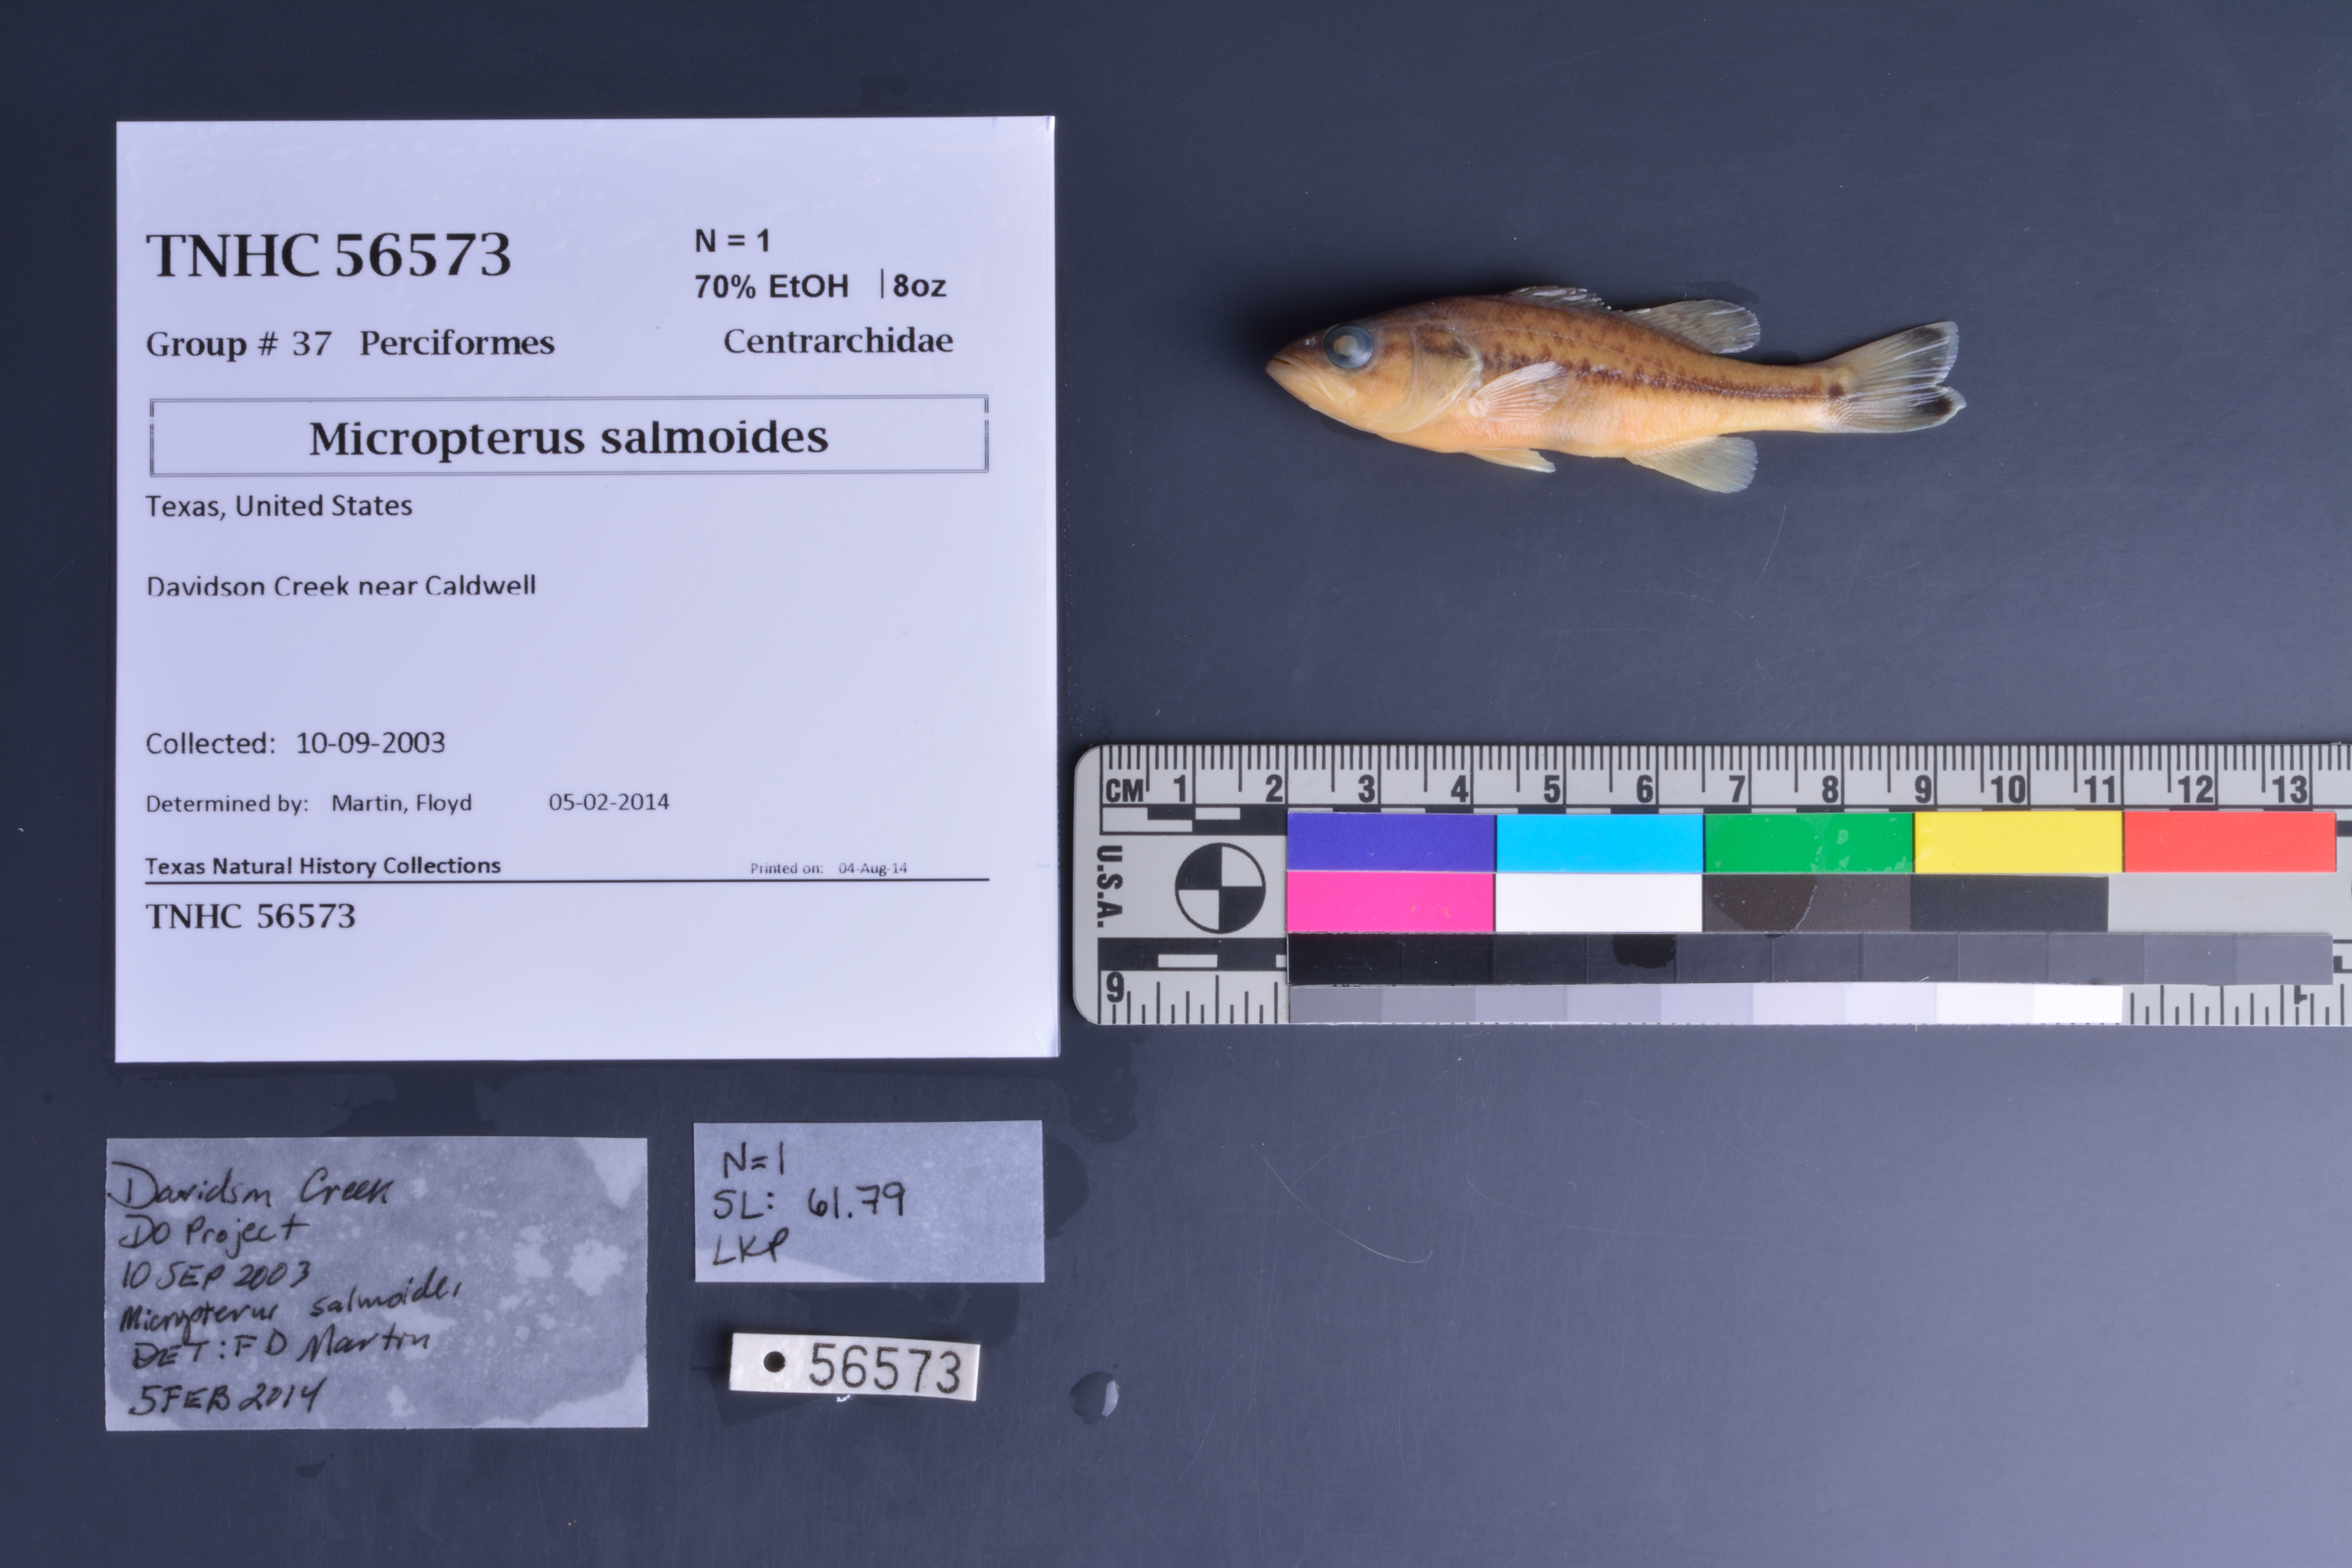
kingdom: Animalia
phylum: Chordata
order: Perciformes
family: Centrarchidae
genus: Micropterus
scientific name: Micropterus salmoides
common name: Largemouth bass
